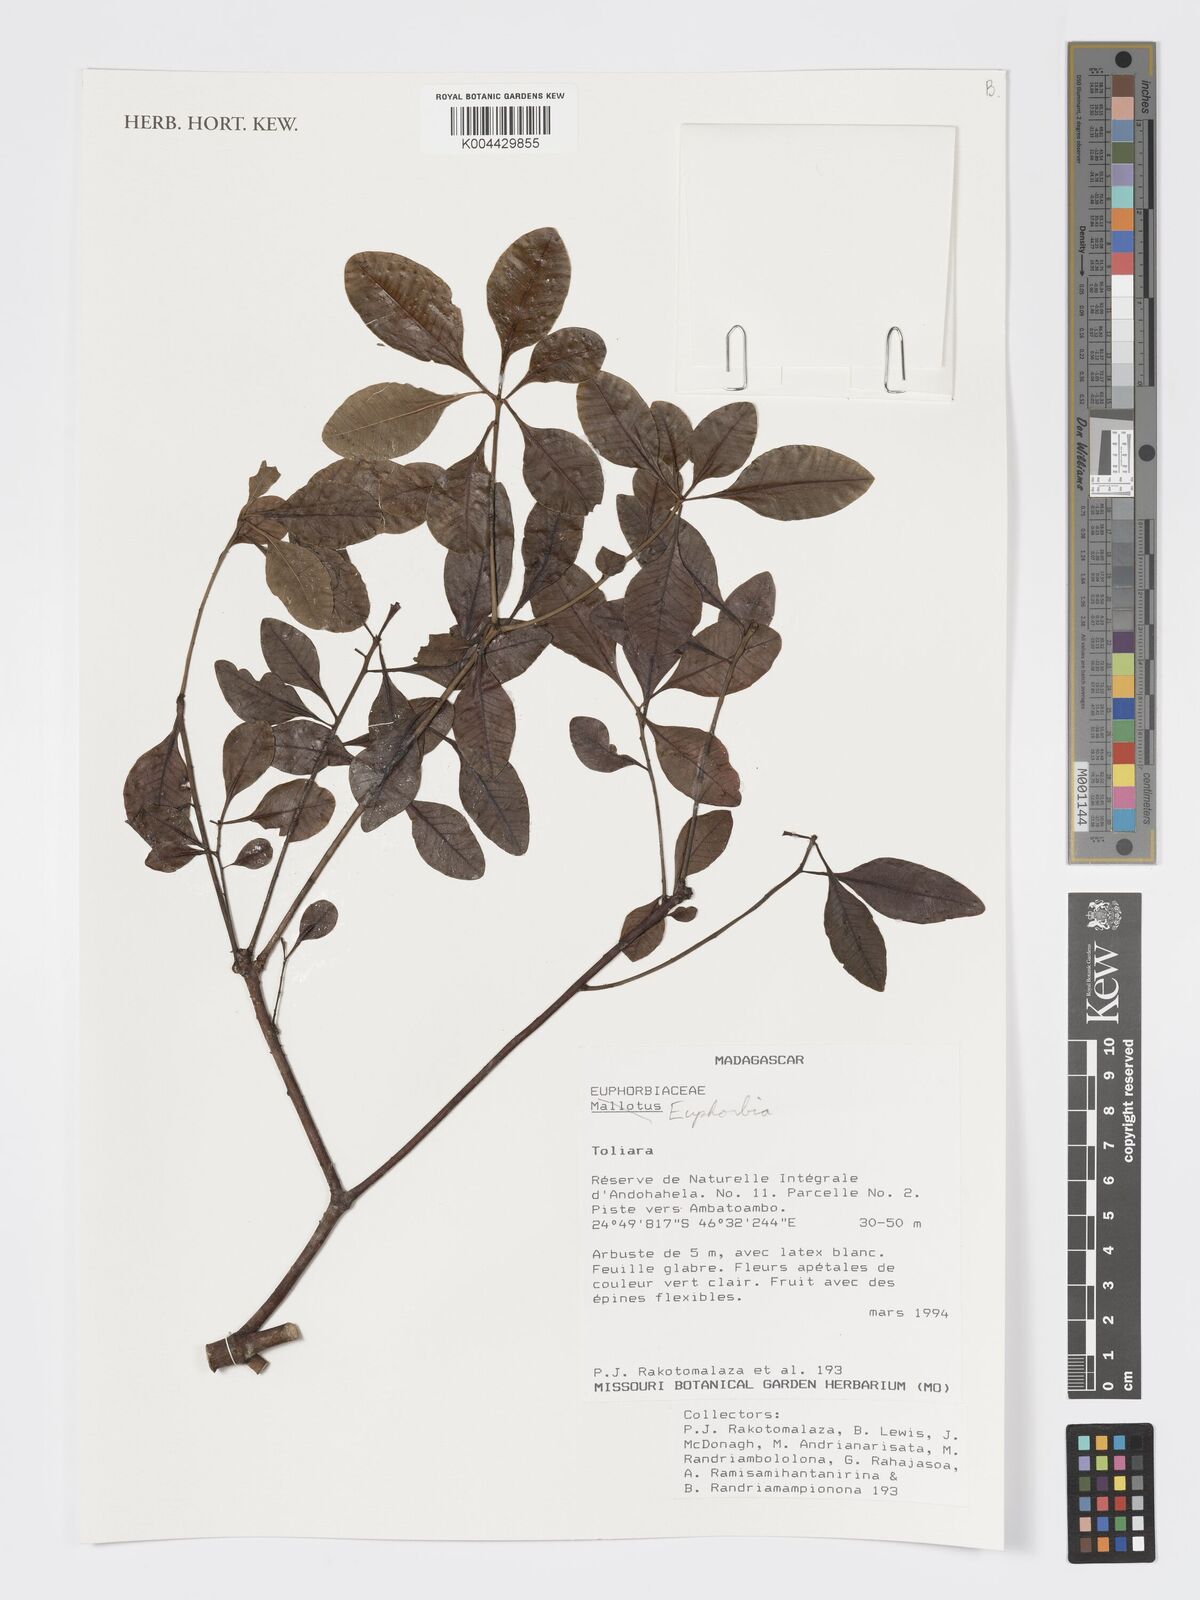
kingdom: Plantae
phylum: Tracheophyta
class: Magnoliopsida
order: Malpighiales
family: Euphorbiaceae
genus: Euphorbia
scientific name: Euphorbia tetraptera
